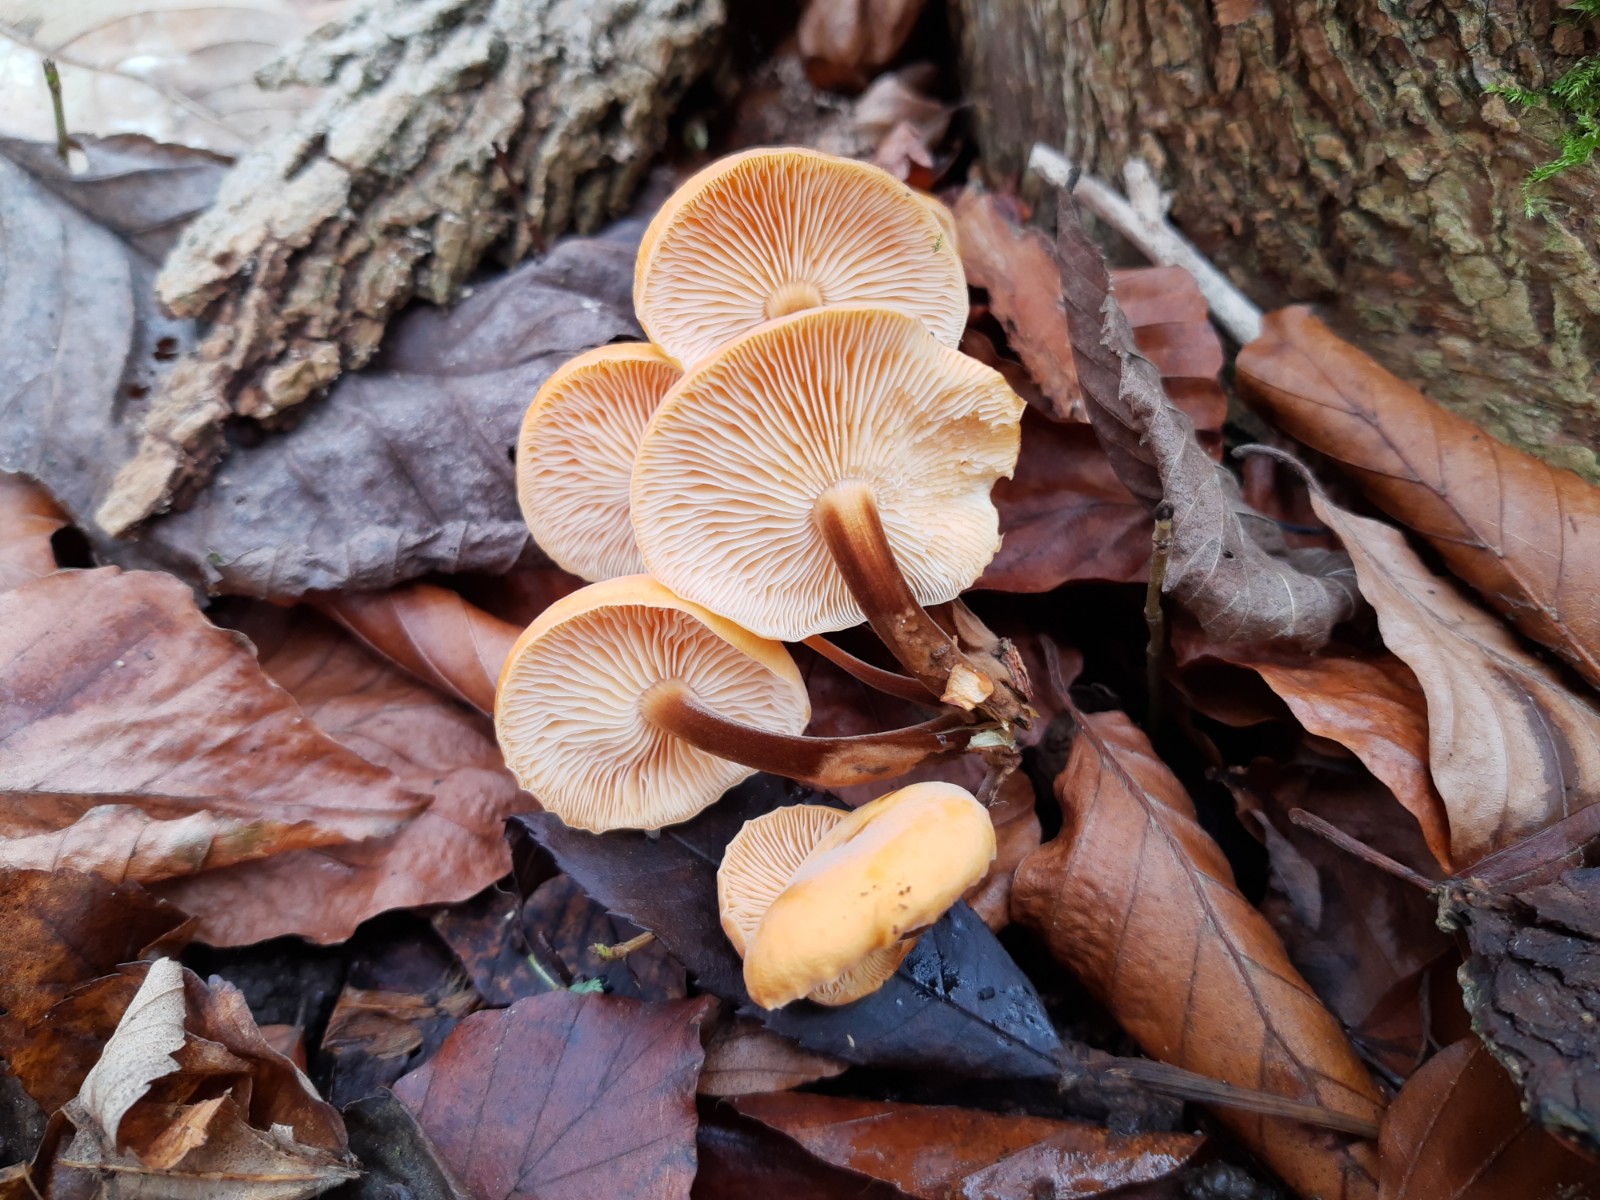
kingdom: Fungi
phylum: Basidiomycota
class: Agaricomycetes
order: Agaricales
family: Physalacriaceae
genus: Flammulina
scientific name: Flammulina velutipes
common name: gul fløjlsfod
